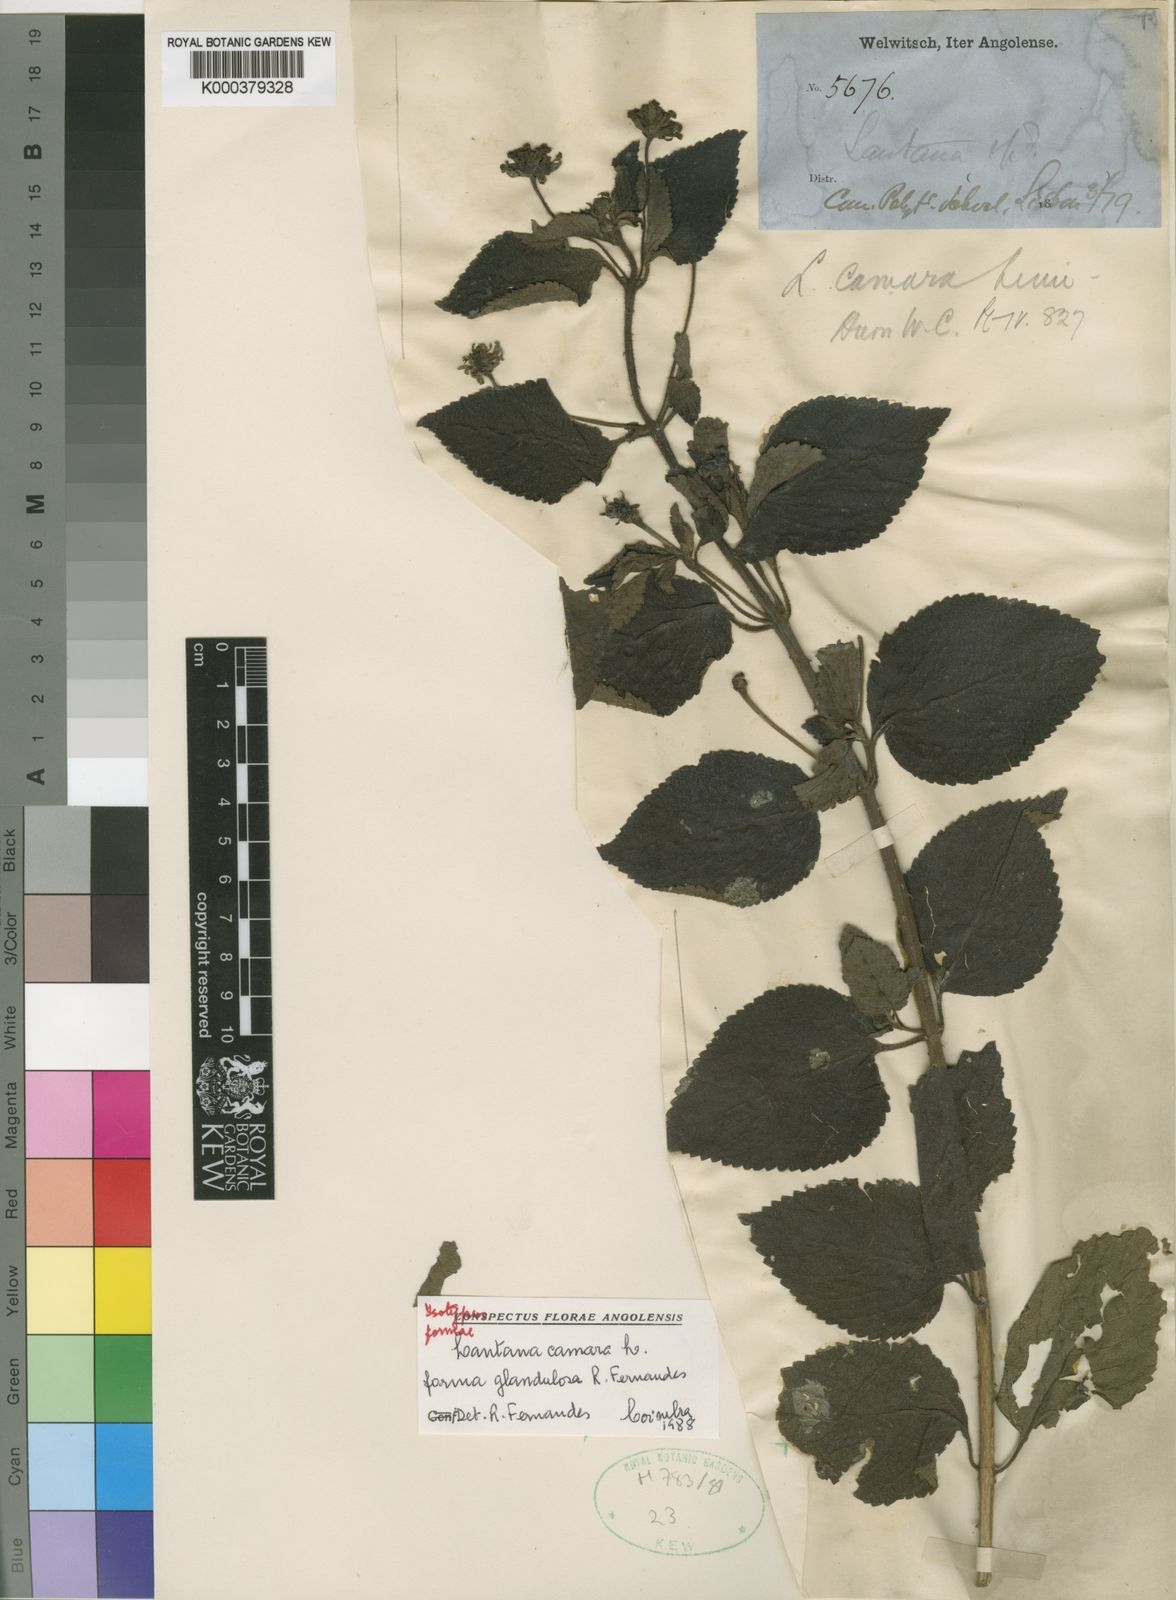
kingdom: Plantae
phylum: Tracheophyta
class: Magnoliopsida
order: Lamiales
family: Verbenaceae
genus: Lantana
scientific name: Lantana camara
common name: Lantana
